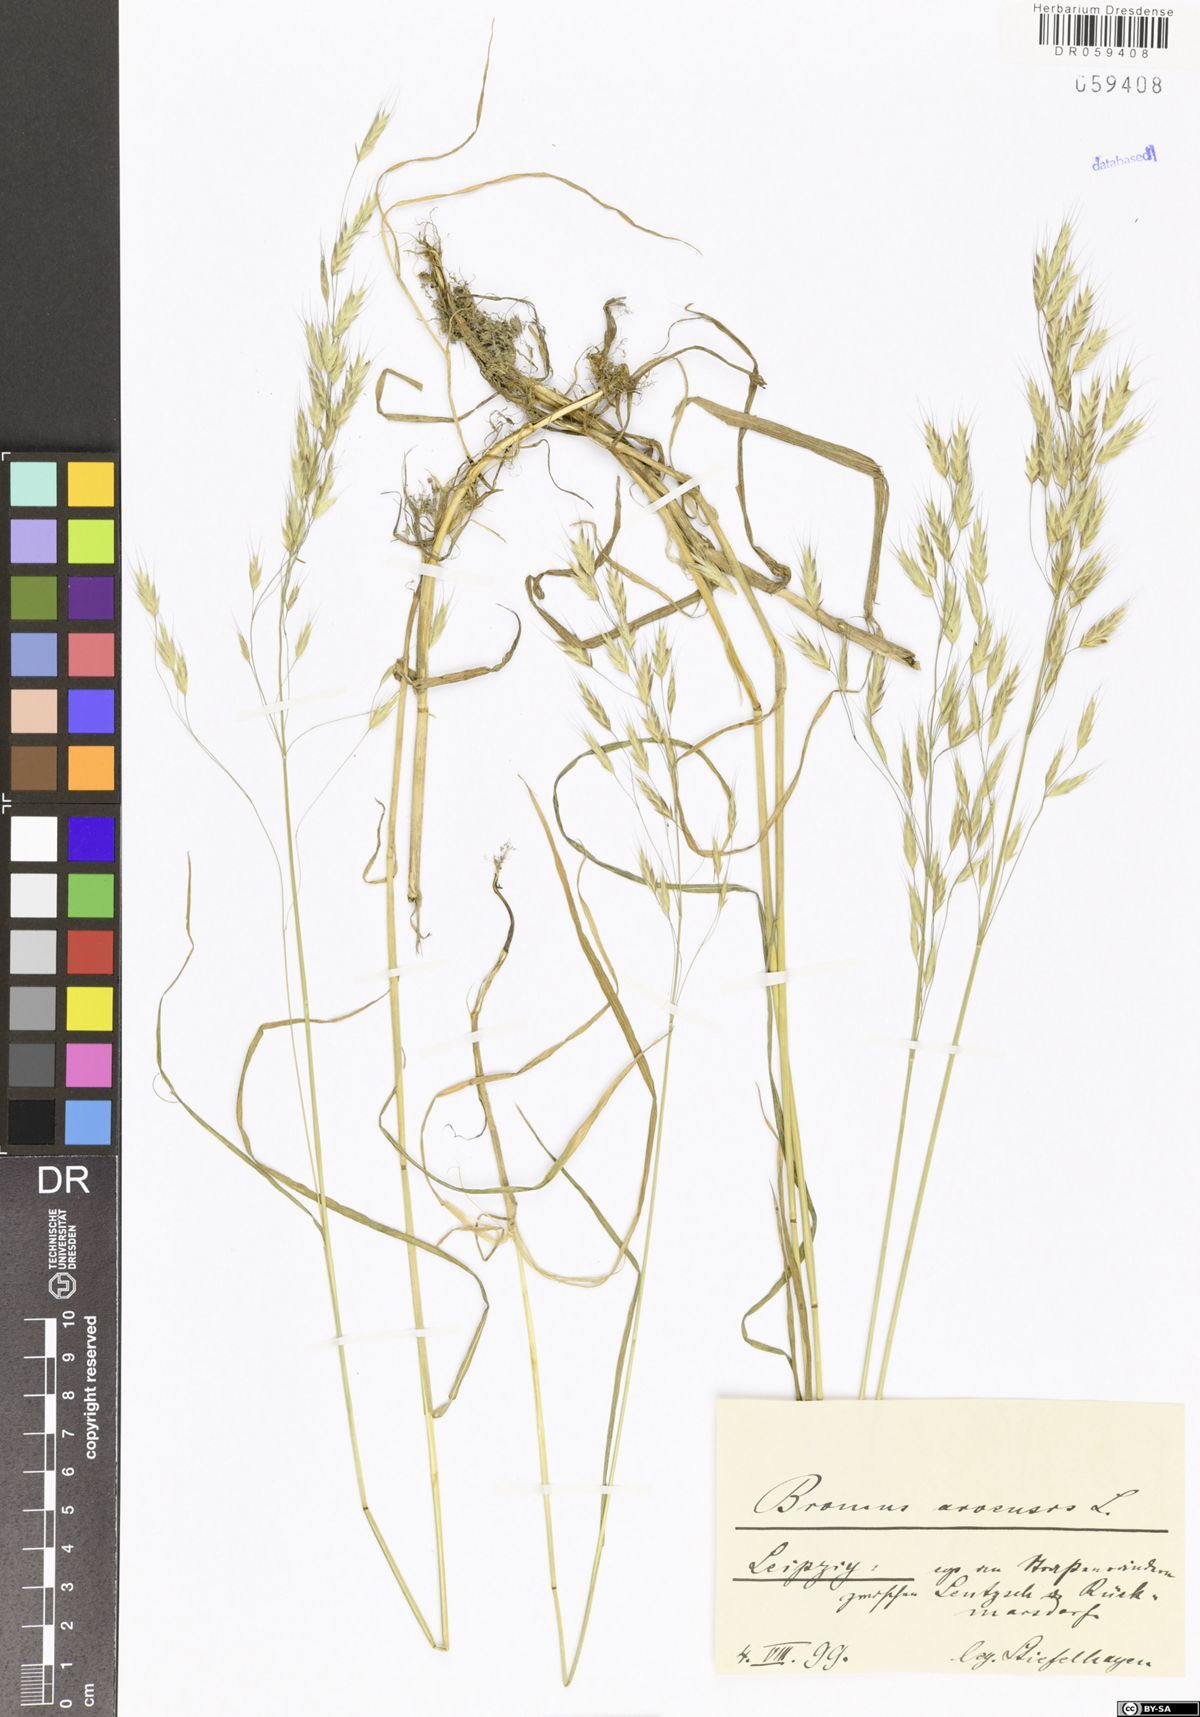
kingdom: Plantae
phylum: Tracheophyta
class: Liliopsida
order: Poales
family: Poaceae
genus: Bromus
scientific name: Bromus arvensis
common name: Field brome
